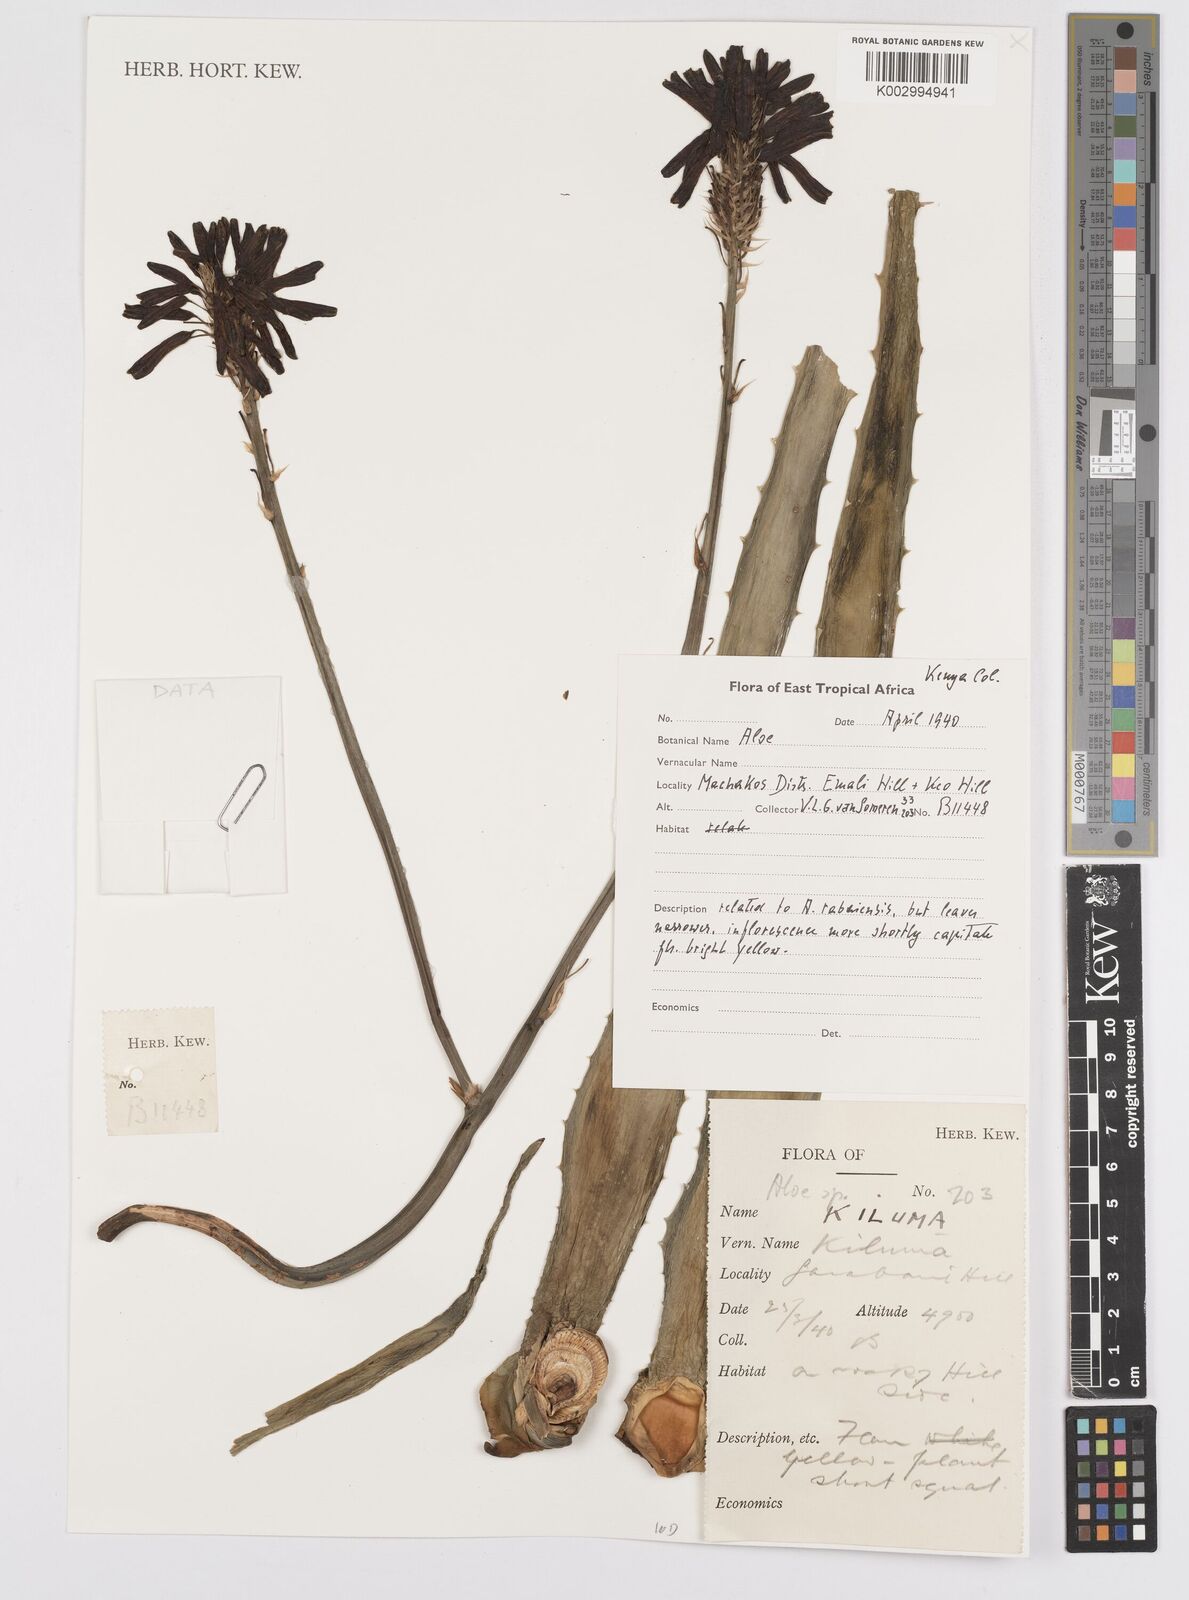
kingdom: Plantae
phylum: Tracheophyta
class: Liliopsida
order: Asparagales
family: Asphodelaceae
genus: Aloe
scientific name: Aloe
